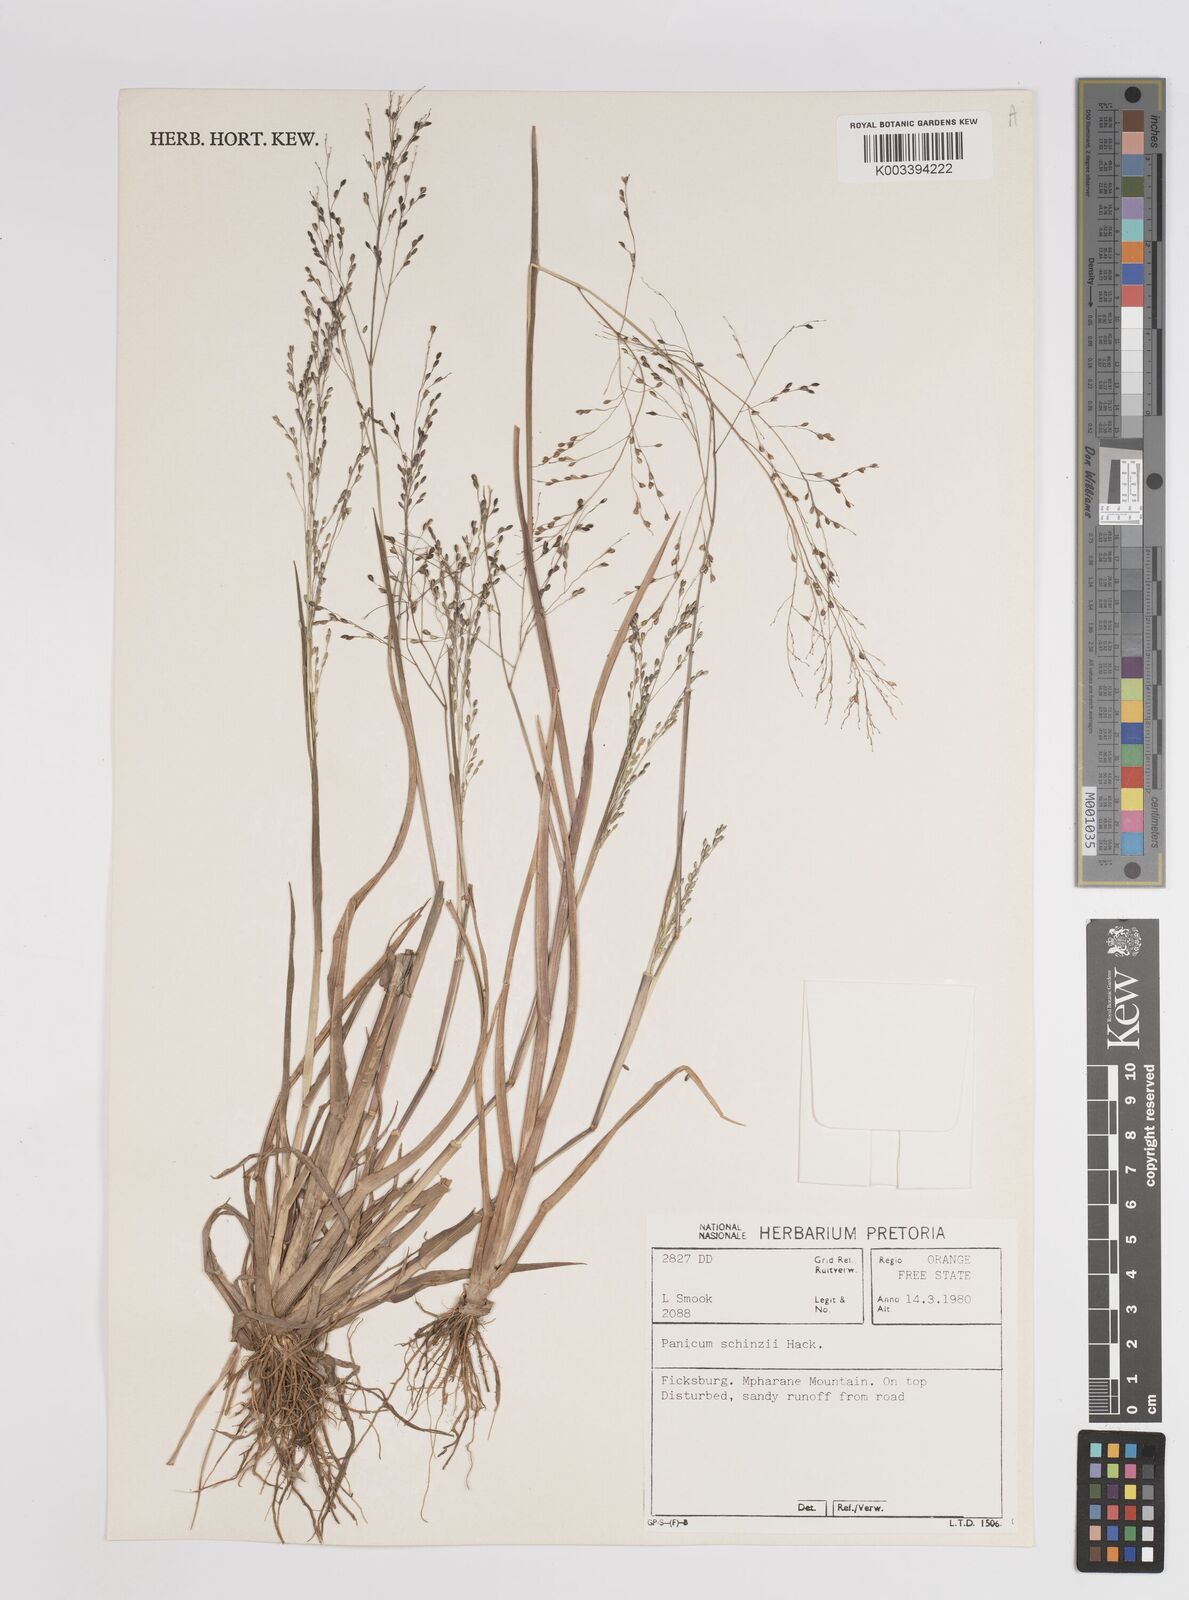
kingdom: Plantae
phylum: Tracheophyta
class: Liliopsida
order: Poales
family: Poaceae
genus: Panicum
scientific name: Panicum schinzii
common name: Sweet grass
